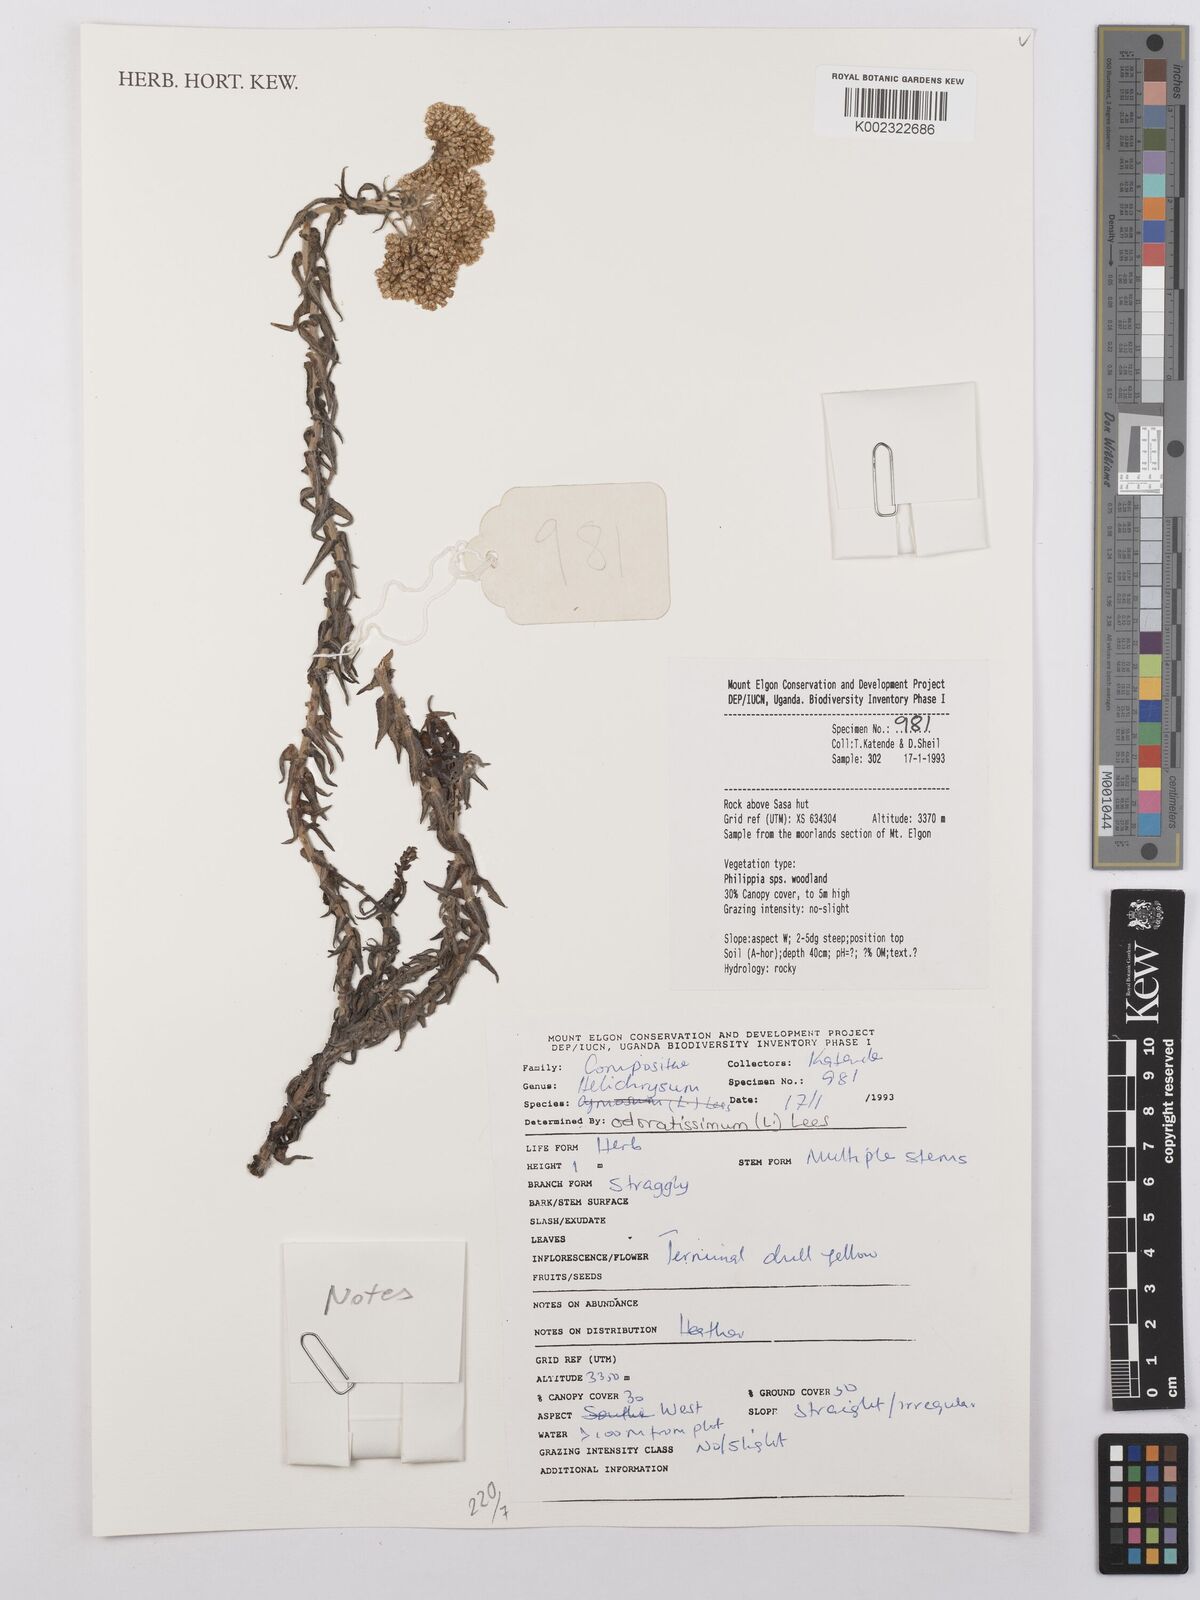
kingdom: Plantae
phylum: Tracheophyta
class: Magnoliopsida
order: Asterales
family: Asteraceae
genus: Helichrysum
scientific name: Helichrysum odoratissimum
